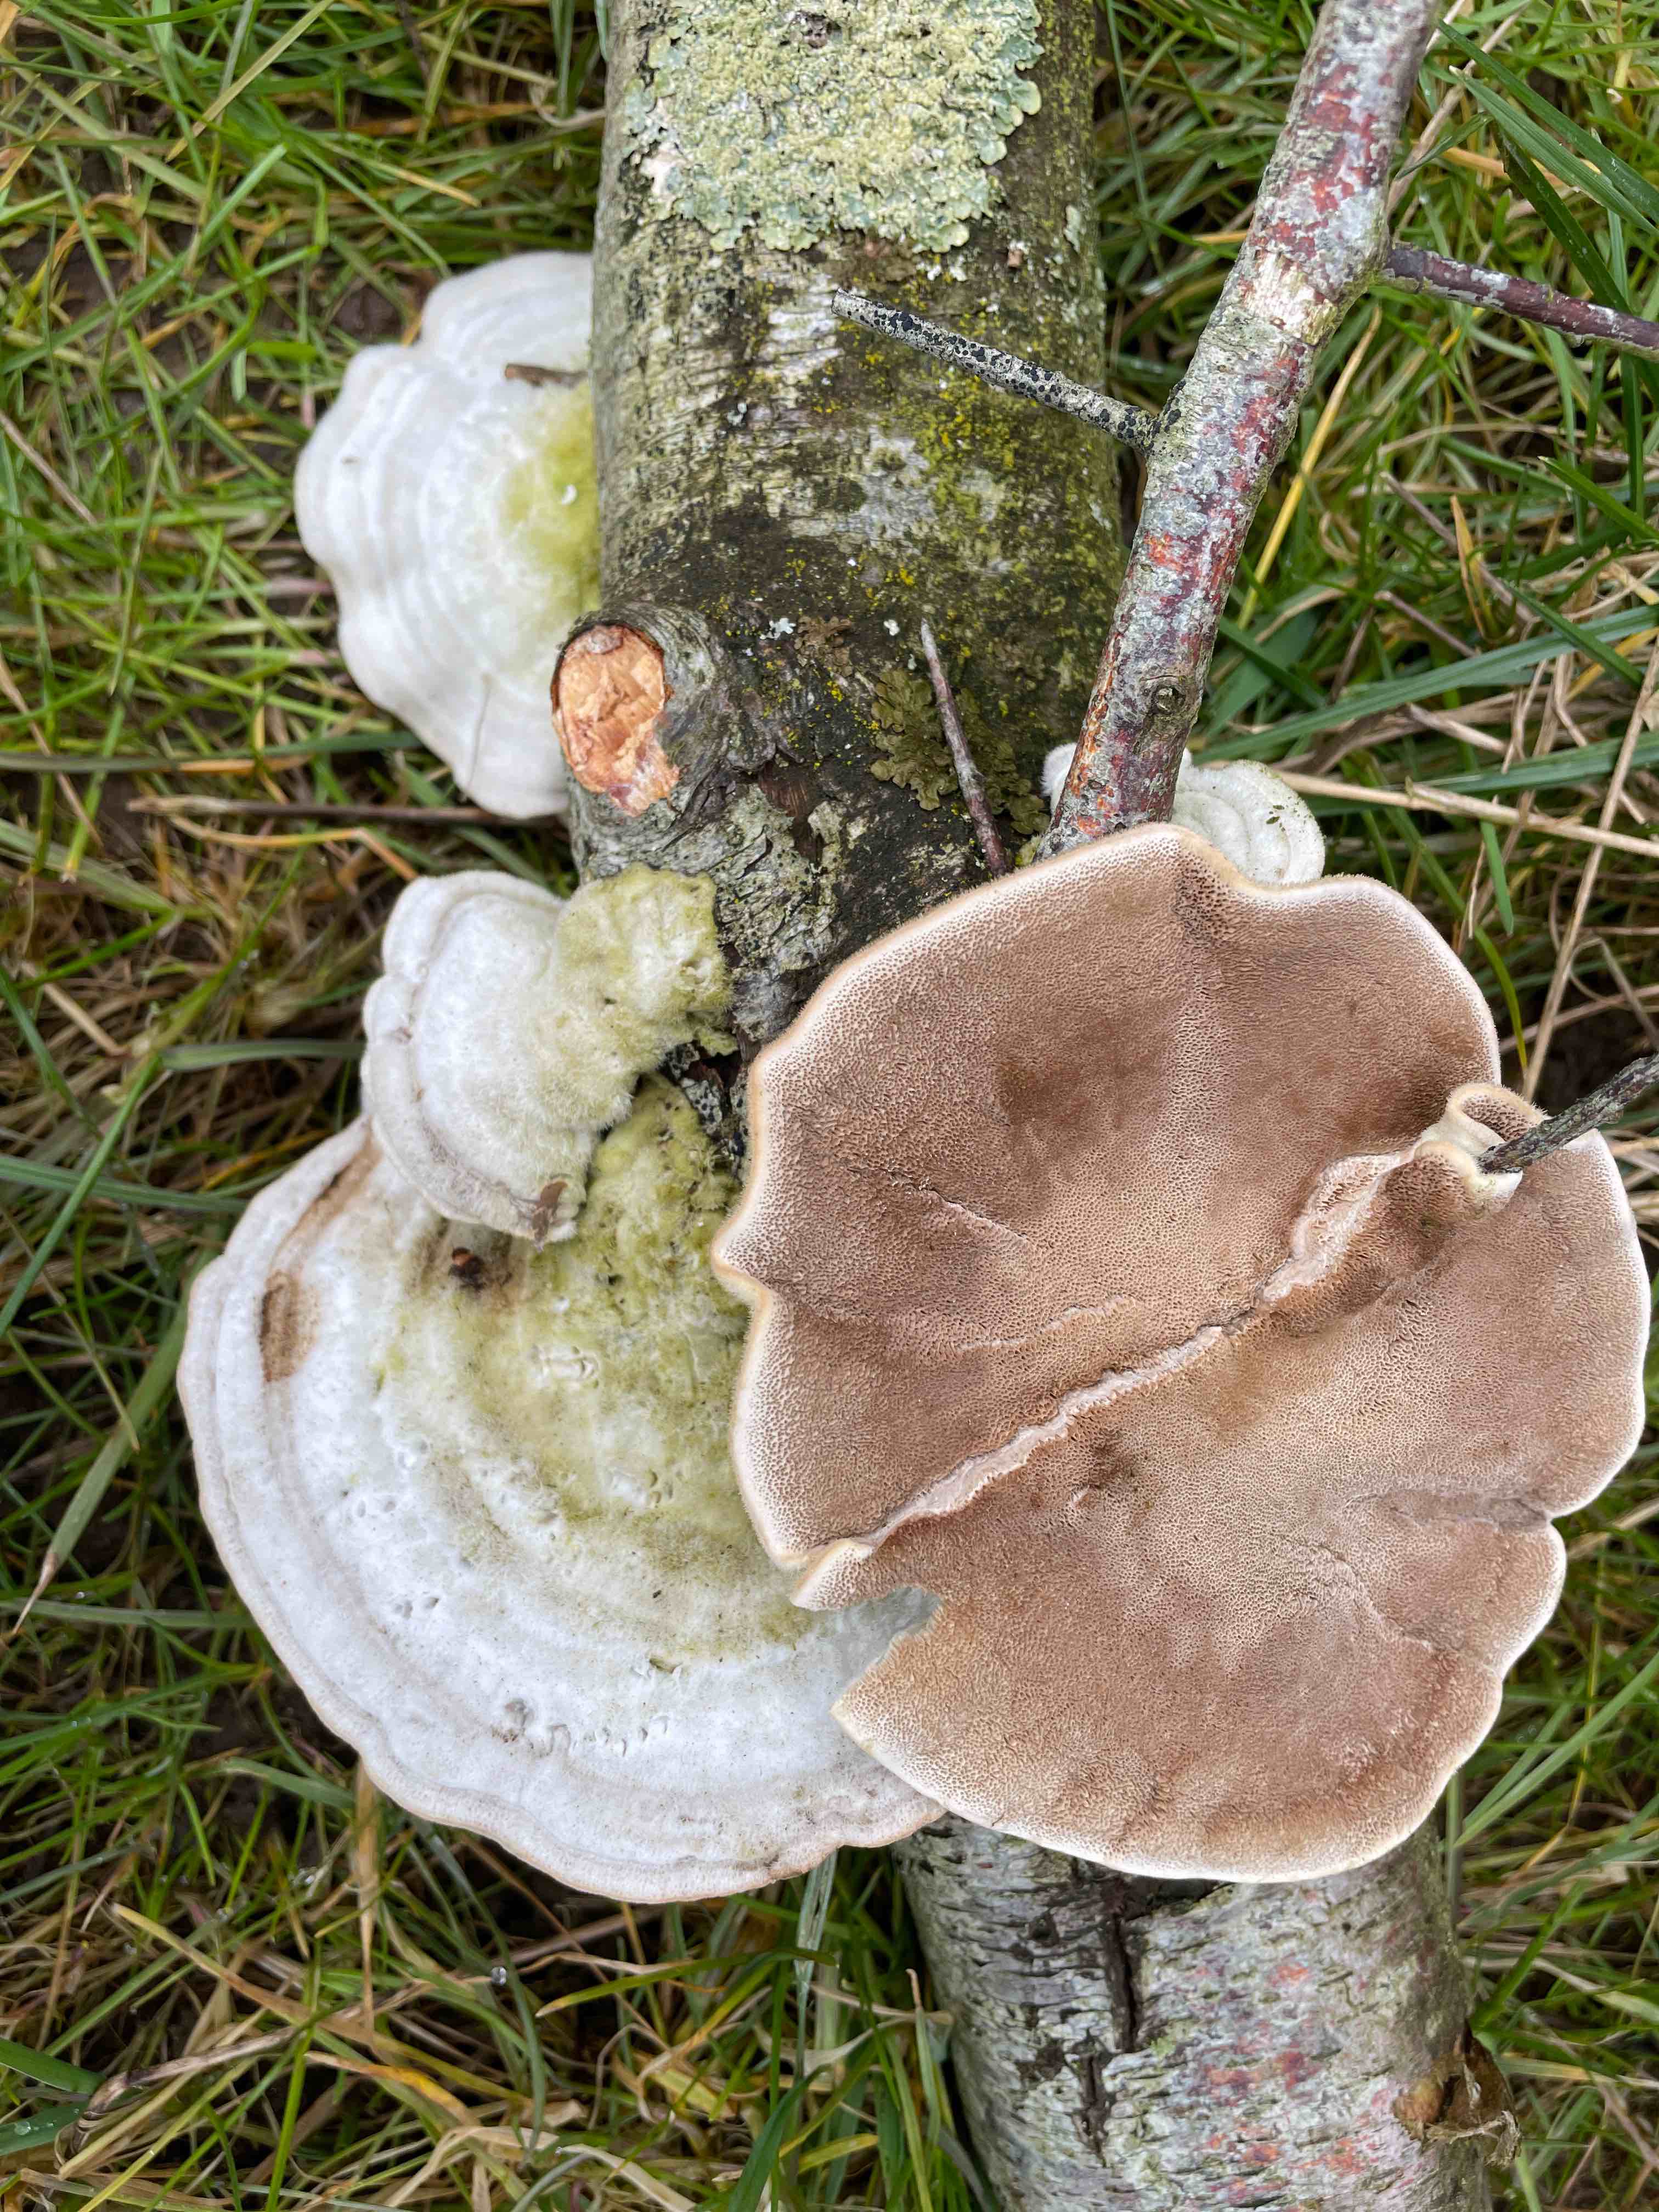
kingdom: Fungi
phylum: Basidiomycota
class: Agaricomycetes
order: Polyporales
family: Polyporaceae
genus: Trametes
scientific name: Trametes hirsuta
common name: håret læderporesvamp
